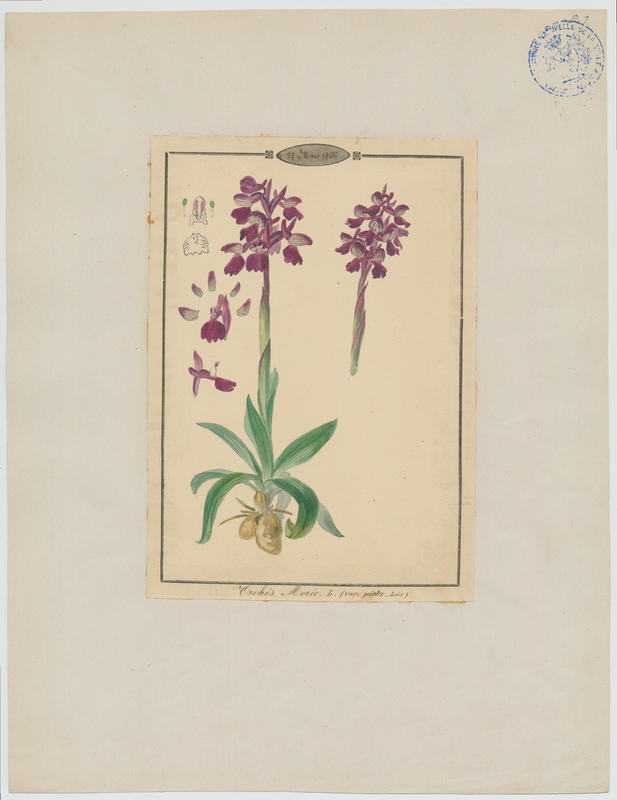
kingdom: Plantae
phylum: Tracheophyta
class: Liliopsida
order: Asparagales
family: Orchidaceae
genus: Anacamptis
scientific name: Anacamptis morio
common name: Green-winged orchid
